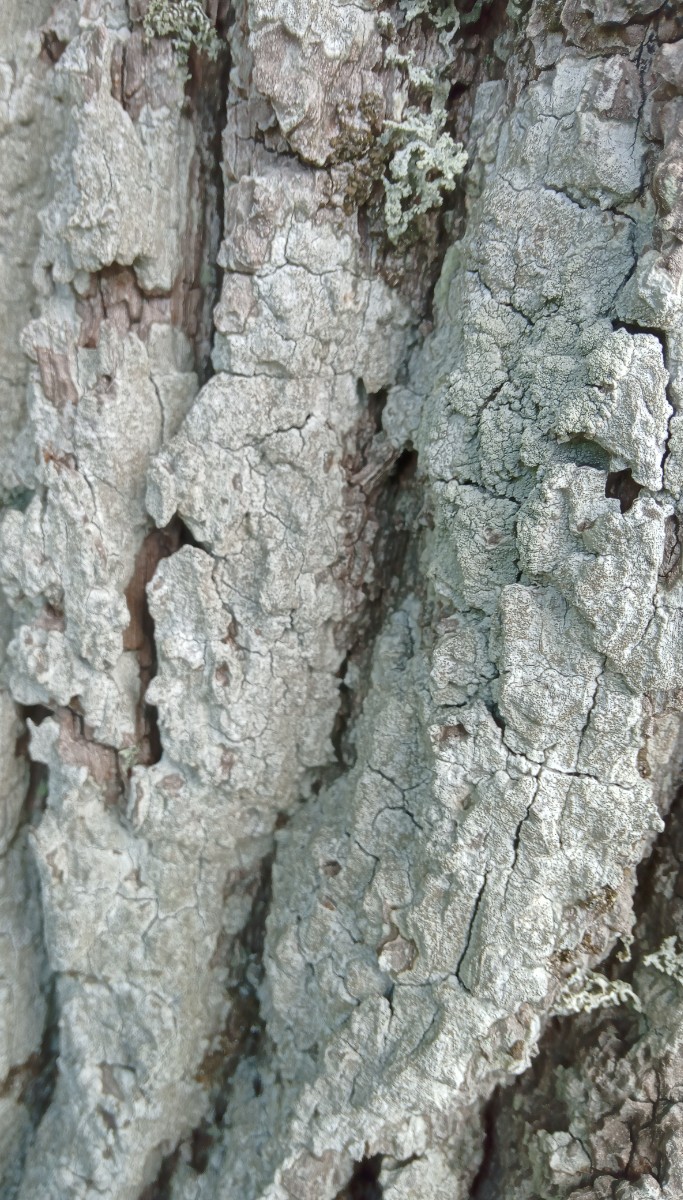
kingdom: Fungi
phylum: Ascomycota
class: Lecanoromycetes
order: Lecanorales
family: Parmeliaceae
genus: Lichen
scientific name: Lichen
